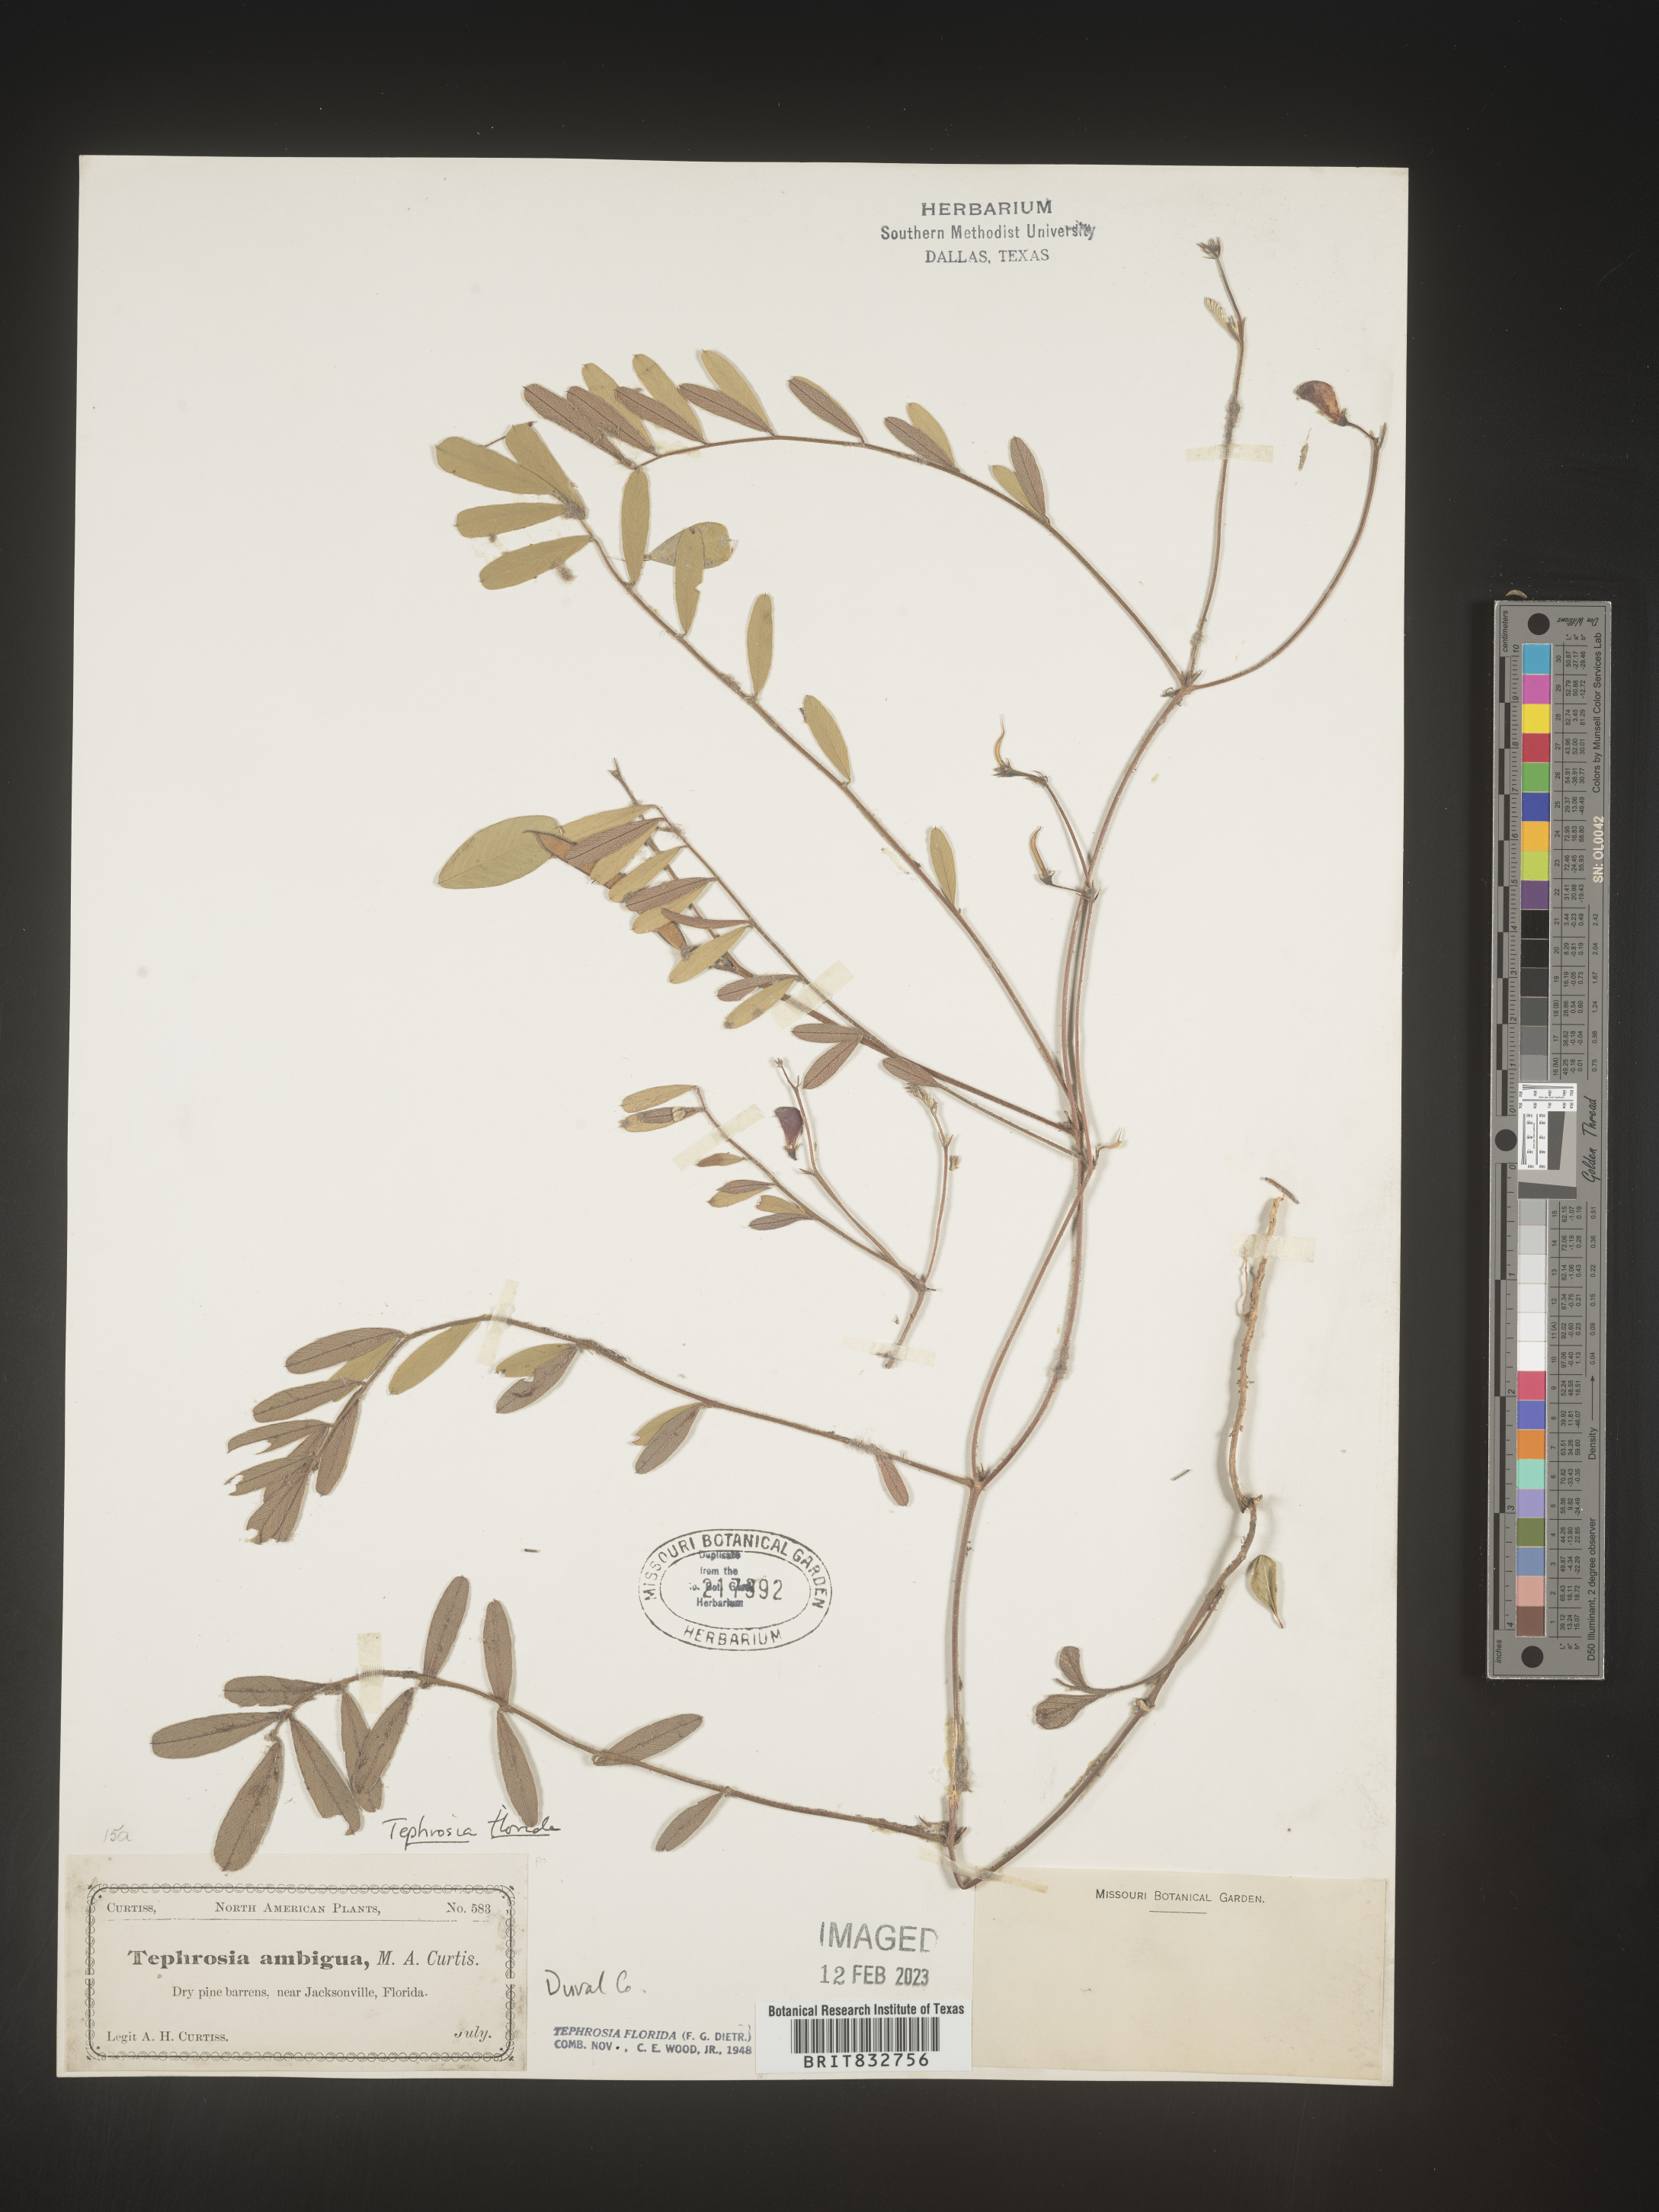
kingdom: Plantae
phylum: Tracheophyta
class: Magnoliopsida
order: Fabales
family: Fabaceae
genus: Tephrosia
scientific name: Tephrosia florida
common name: Florida hoary-pea
